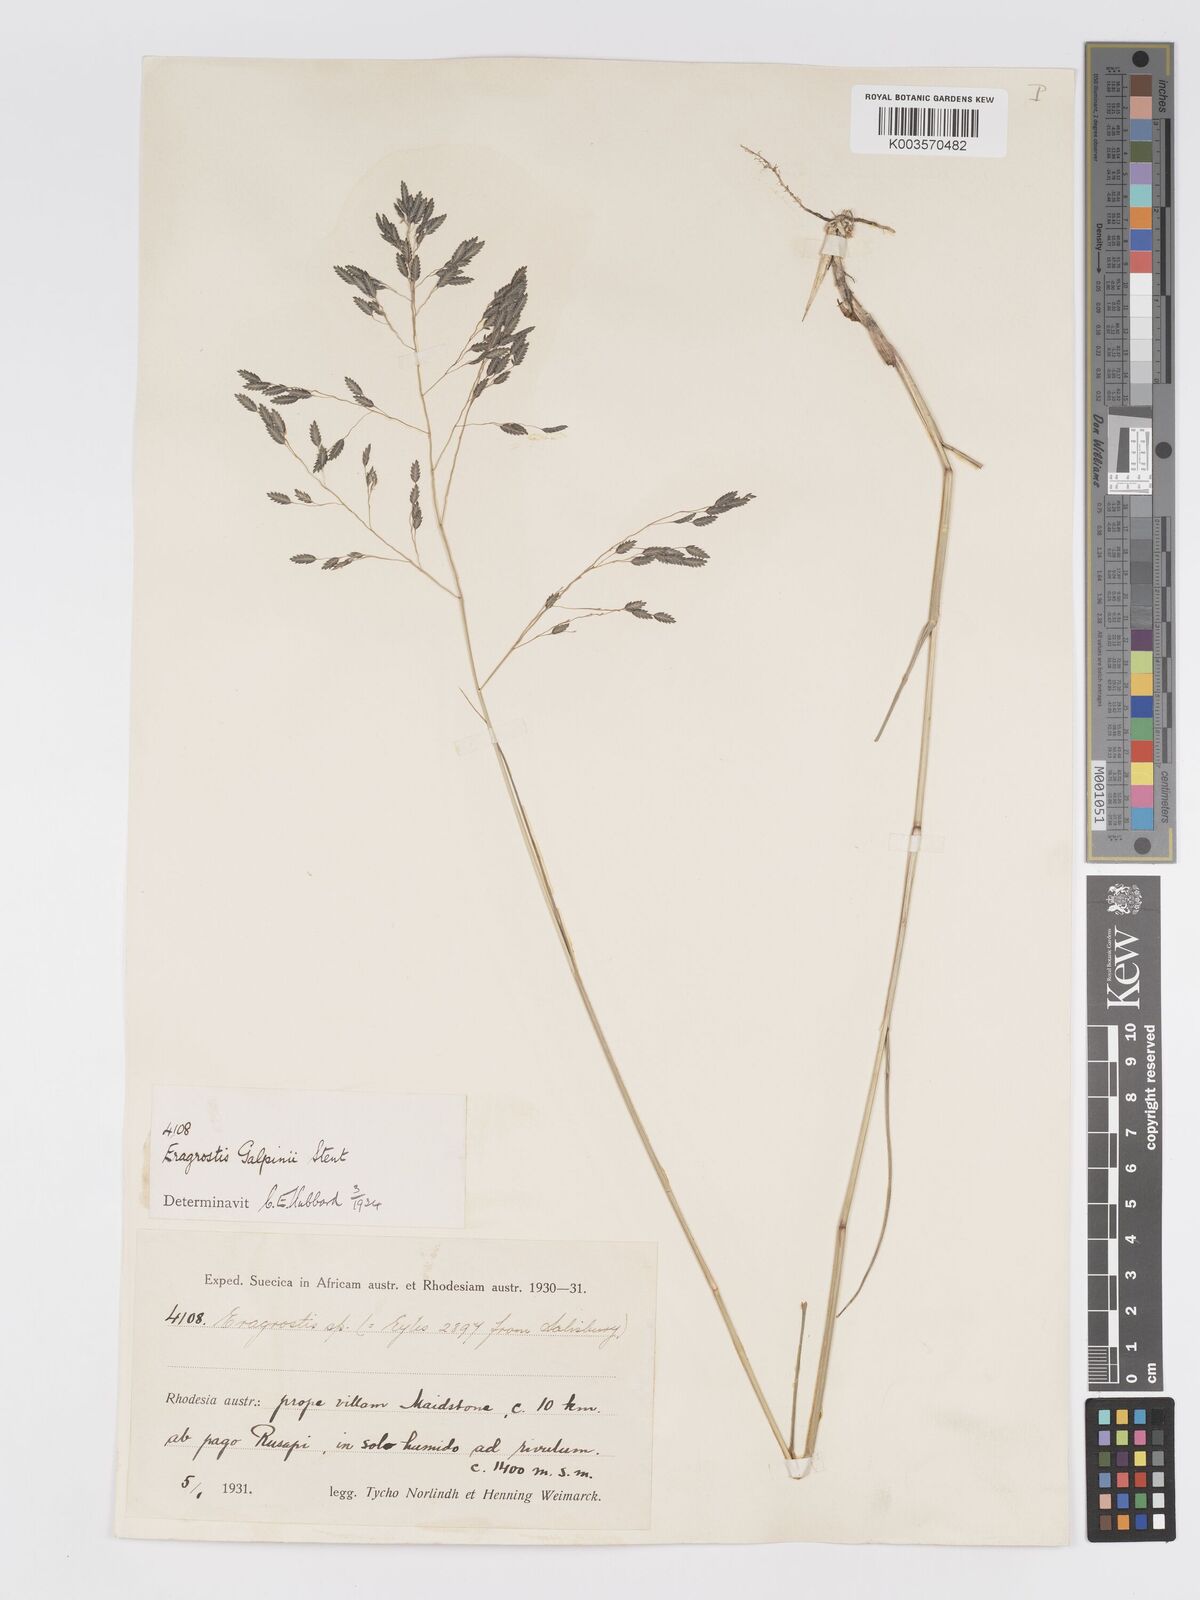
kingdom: Plantae
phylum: Tracheophyta
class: Liliopsida
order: Poales
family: Poaceae
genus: Eragrostis
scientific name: Eragrostis inamoena
